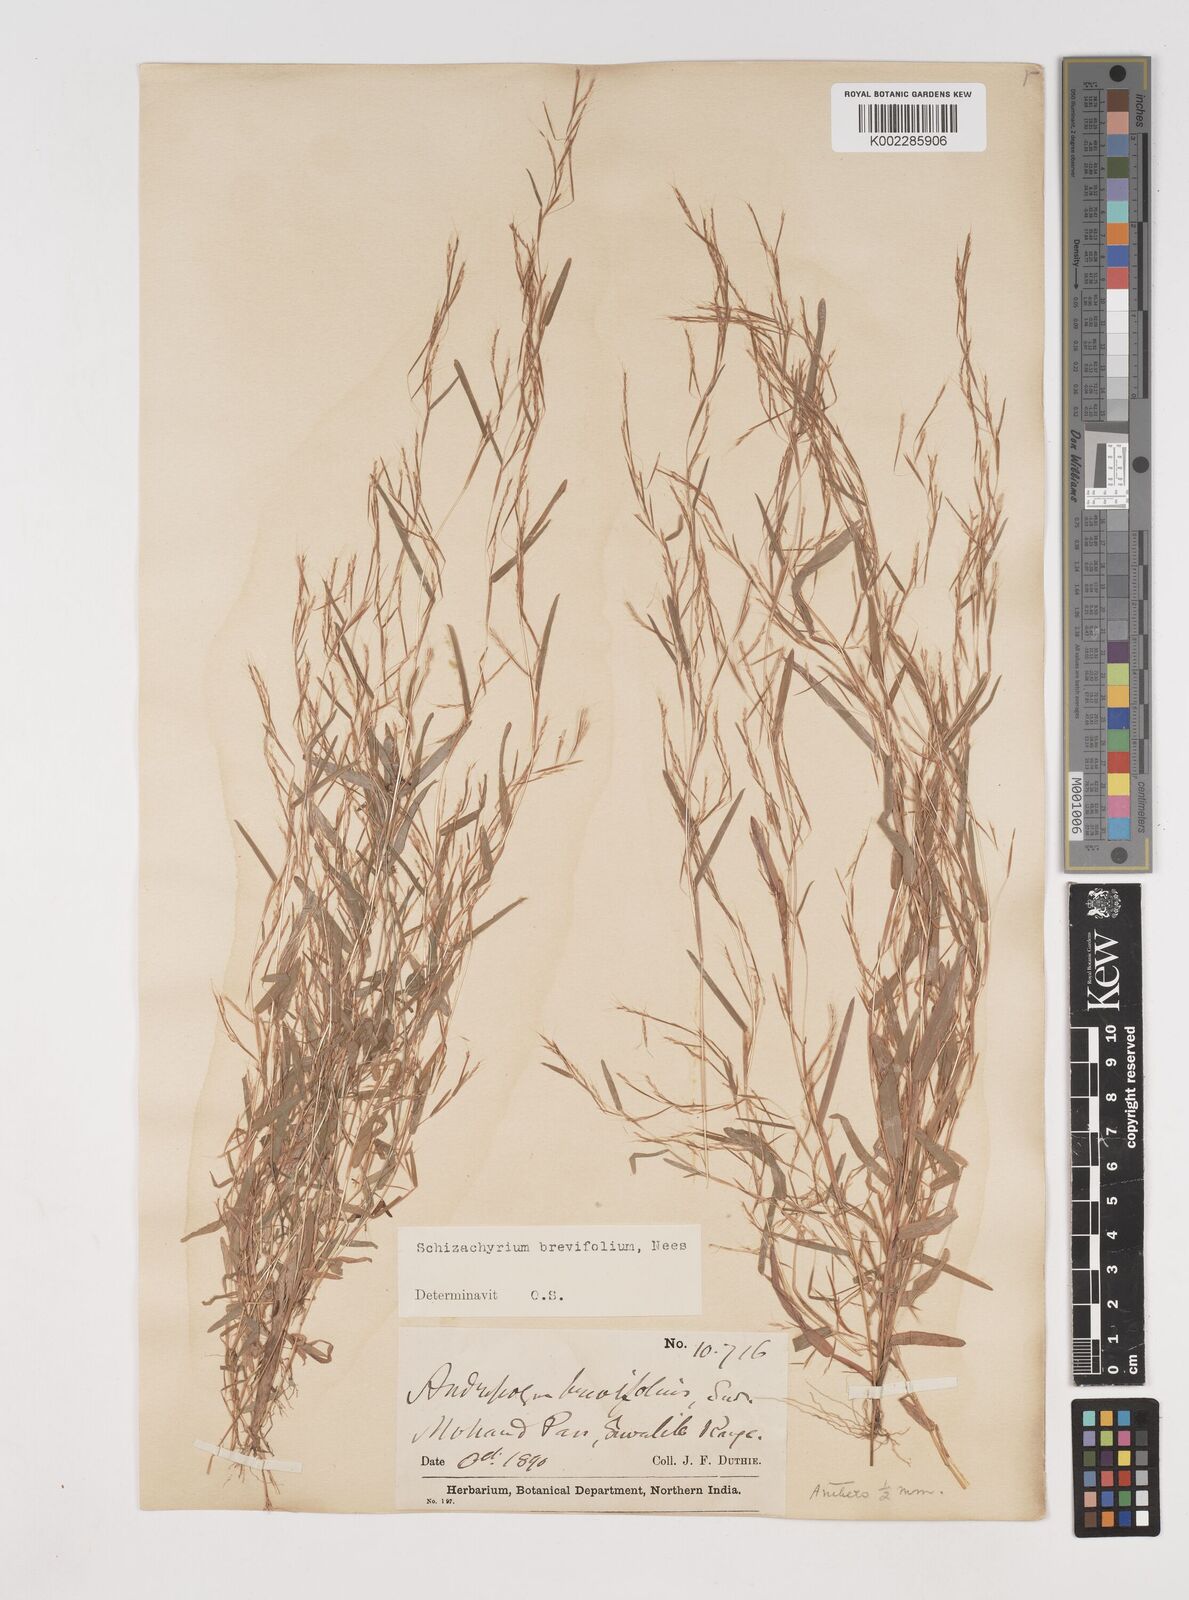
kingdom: Plantae
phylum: Tracheophyta
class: Liliopsida
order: Poales
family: Poaceae
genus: Schizachyrium
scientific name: Schizachyrium brevifolium
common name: Serillo dulce
